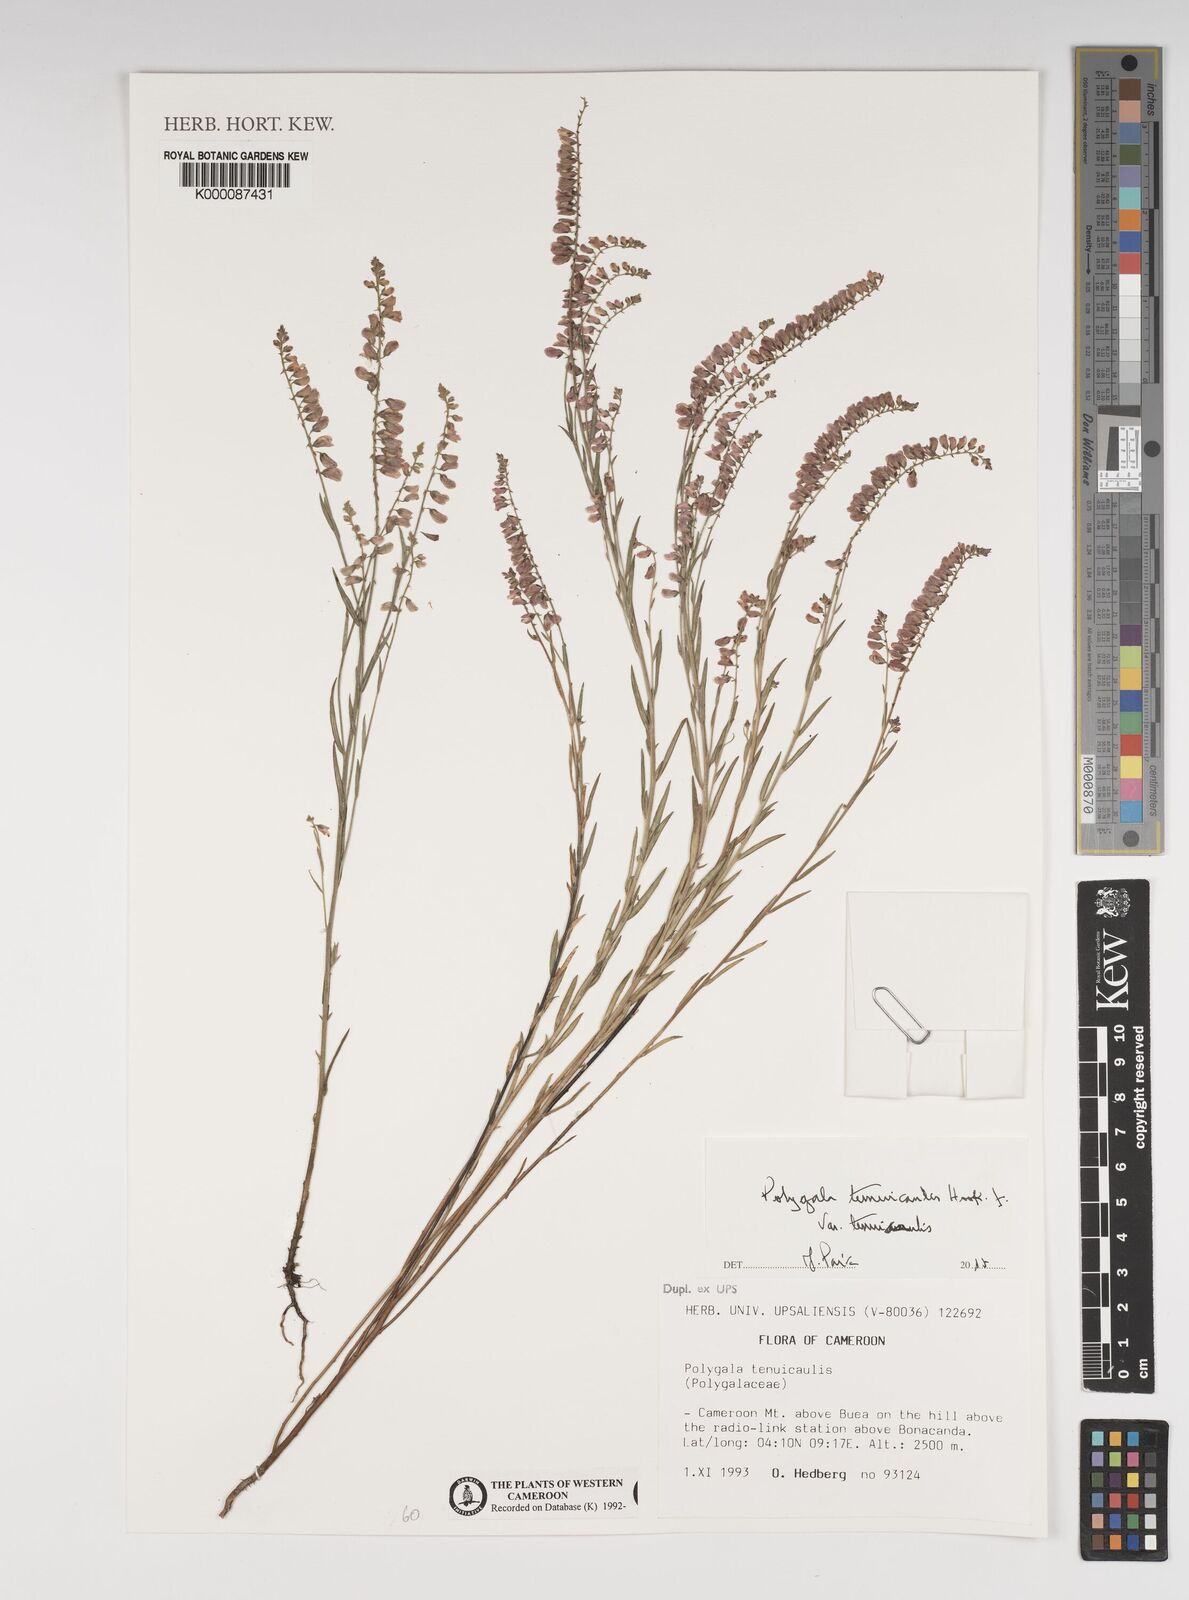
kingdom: Plantae
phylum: Tracheophyta
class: Magnoliopsida
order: Fabales
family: Polygalaceae
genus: Polygala
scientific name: Polygala tenuicaulis
